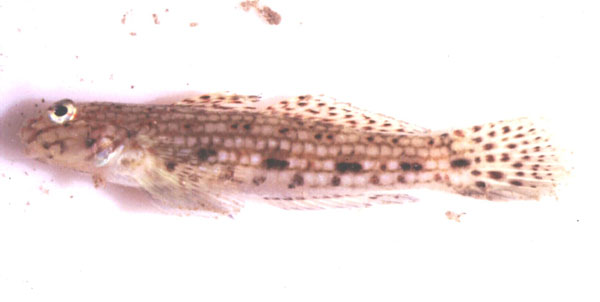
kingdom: Animalia
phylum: Chordata
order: Perciformes
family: Gobiidae
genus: Istigobius
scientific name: Istigobius decoratus
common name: Decorated goby
